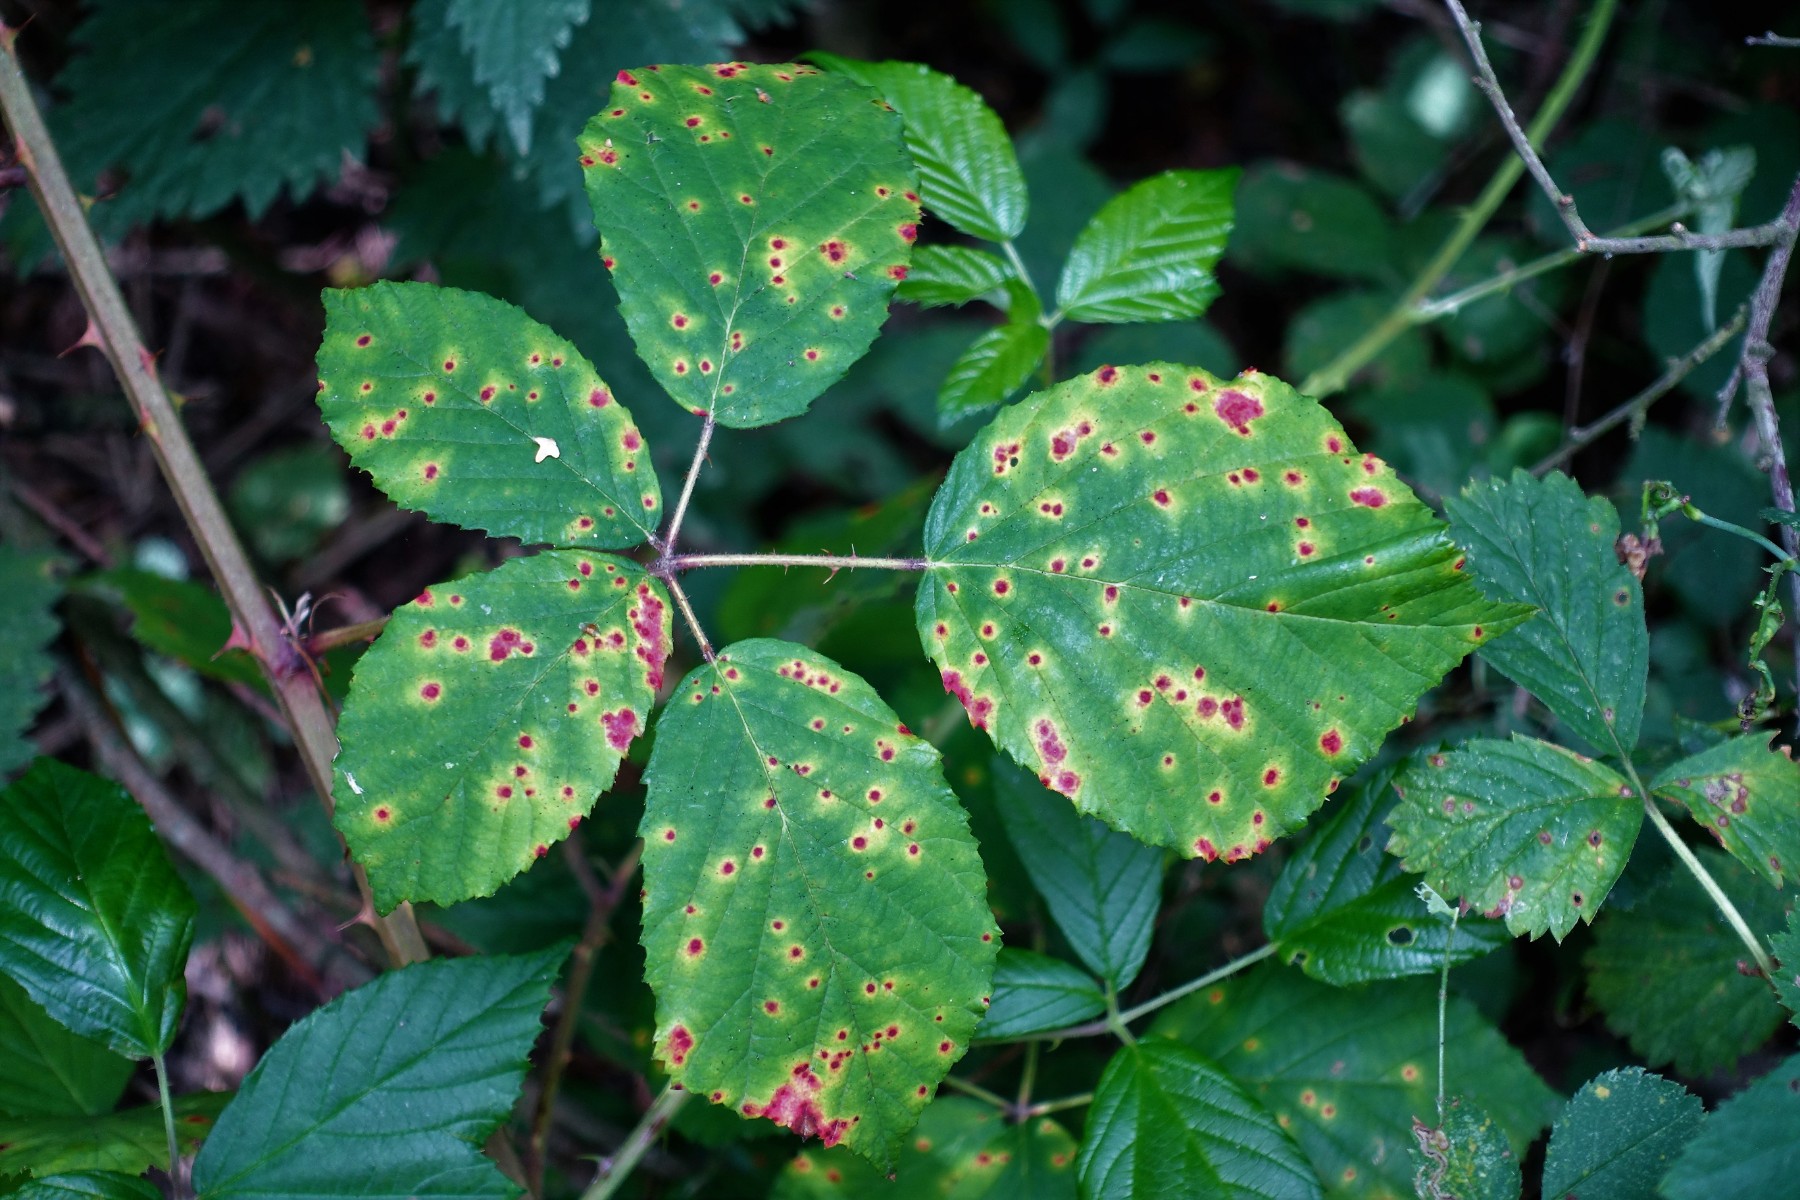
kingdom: Fungi
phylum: Basidiomycota
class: Pucciniomycetes
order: Pucciniales
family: Phragmidiaceae
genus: Phragmidium
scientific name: Phragmidium
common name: flercellerust
